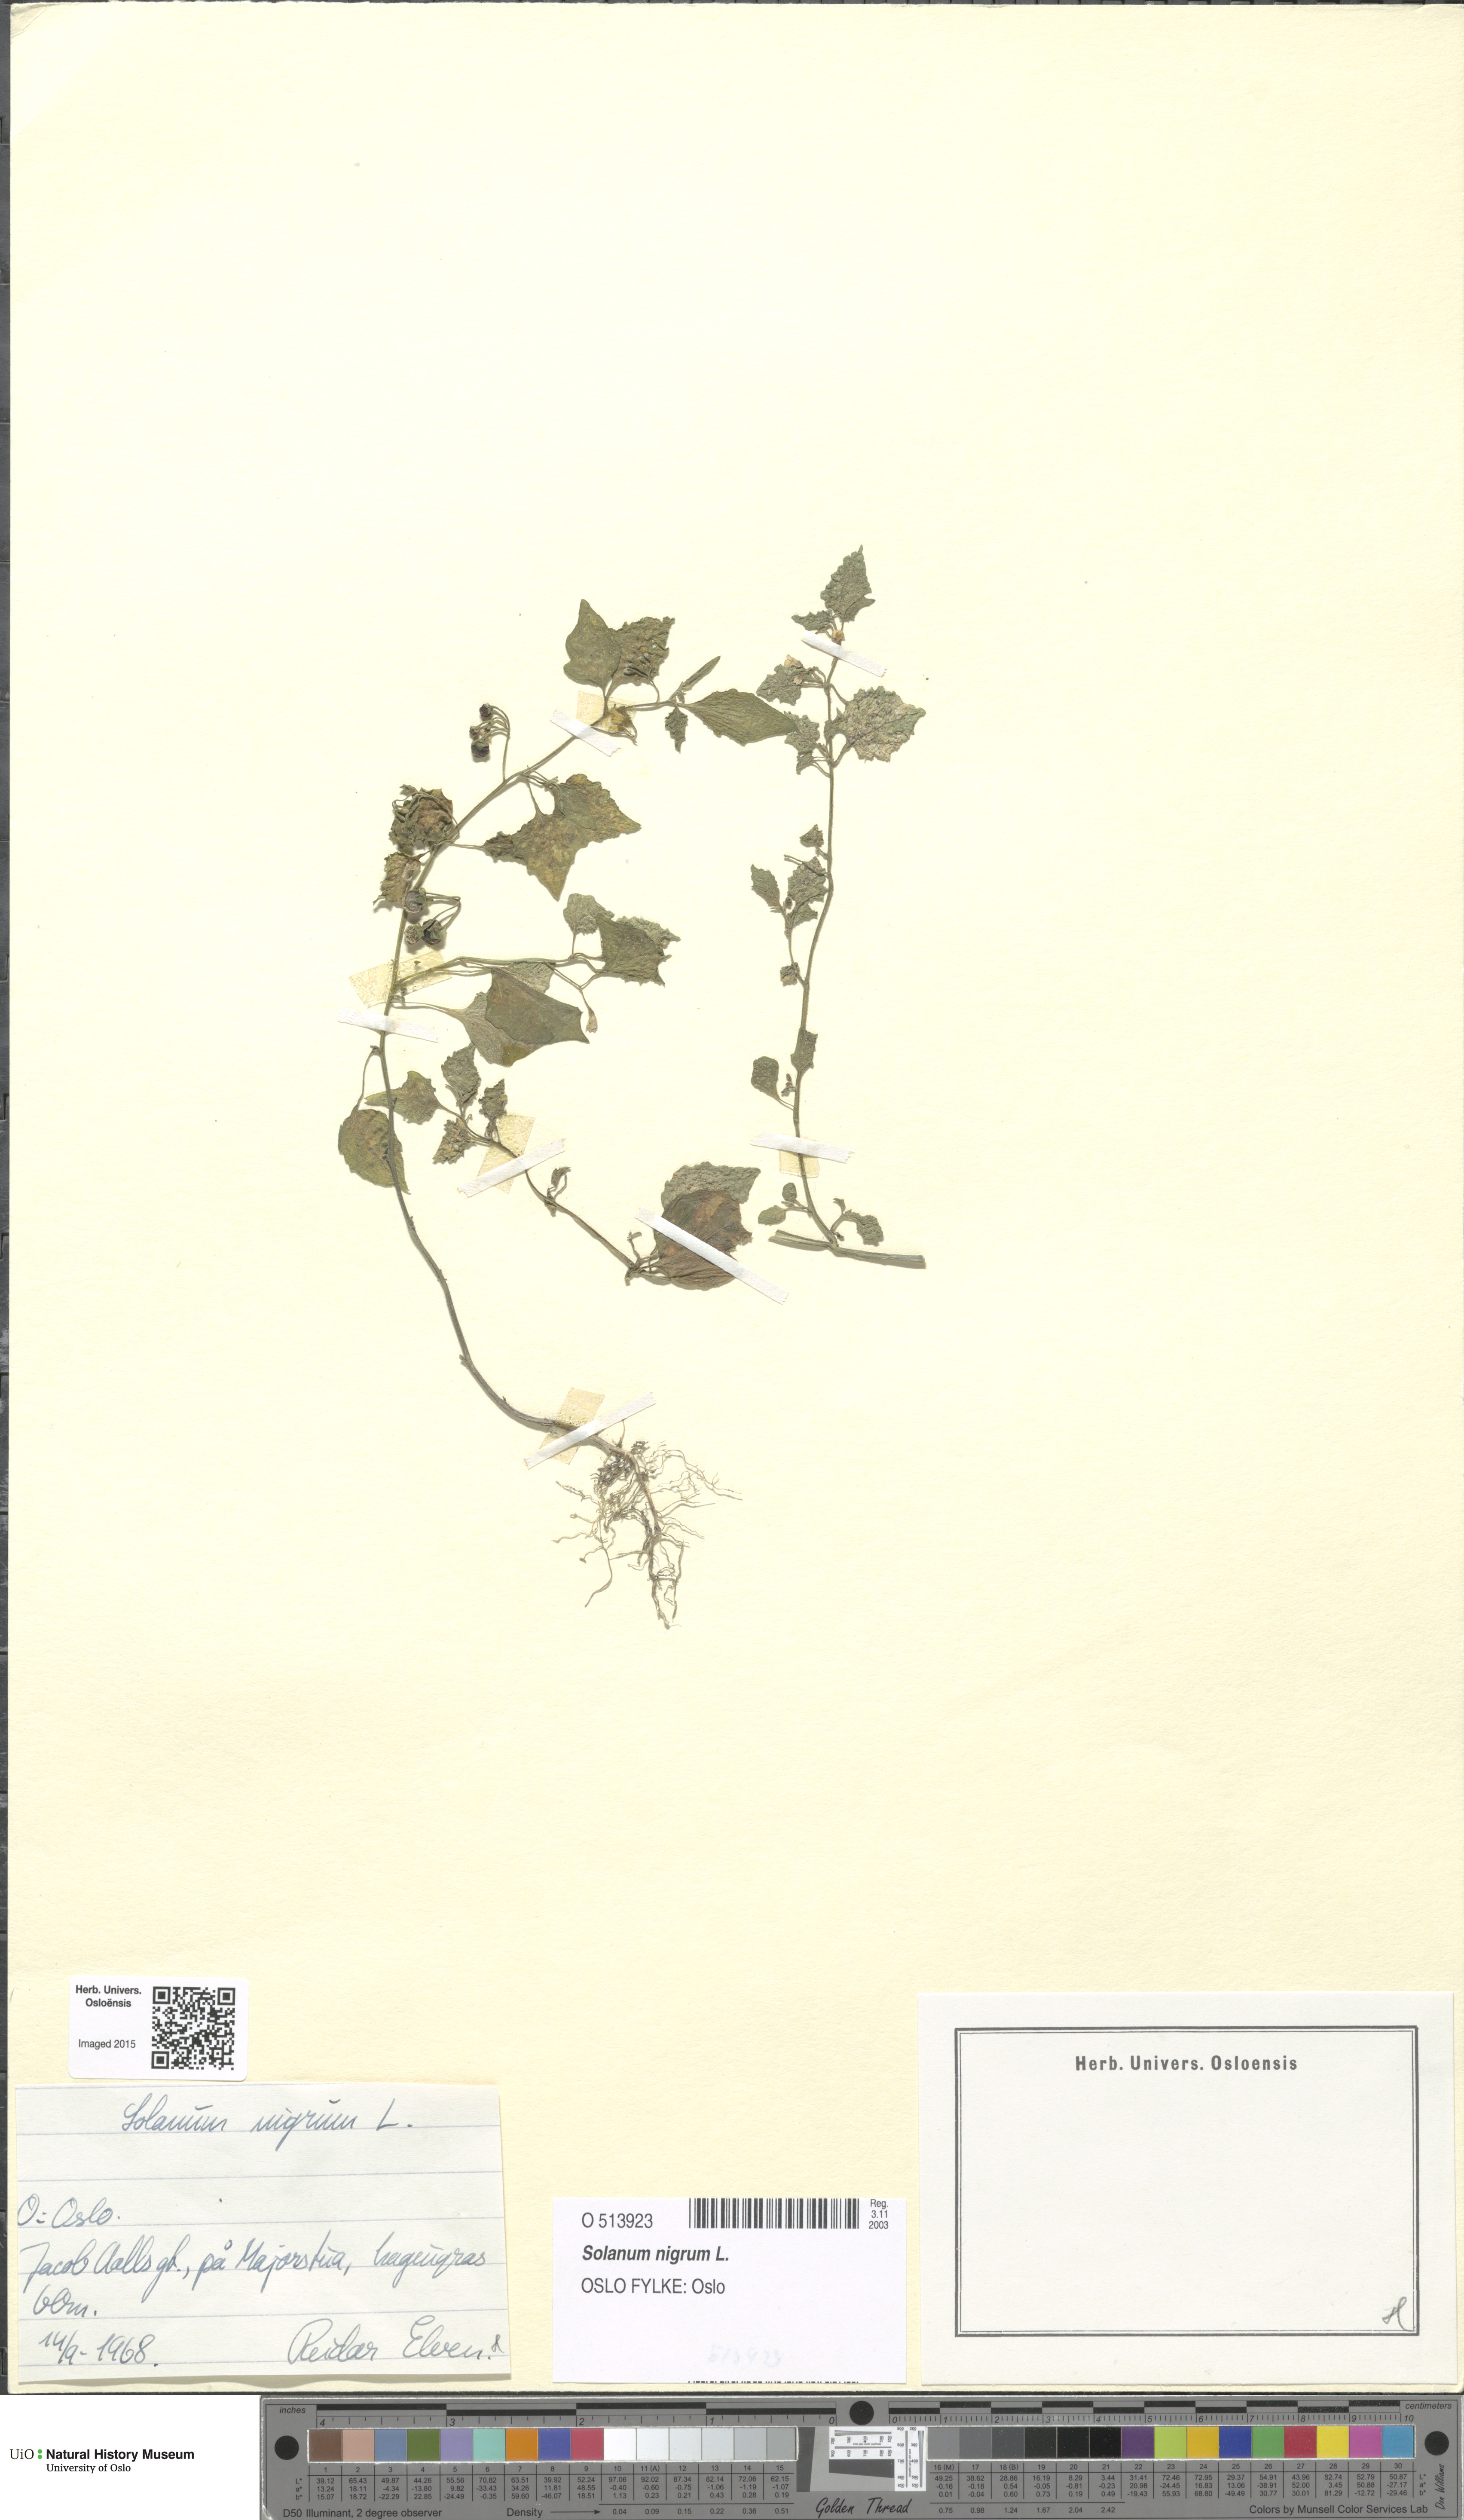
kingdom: Plantae
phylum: Tracheophyta
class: Magnoliopsida
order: Solanales
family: Solanaceae
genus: Solanum
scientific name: Solanum nigrum
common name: Black nightshade
